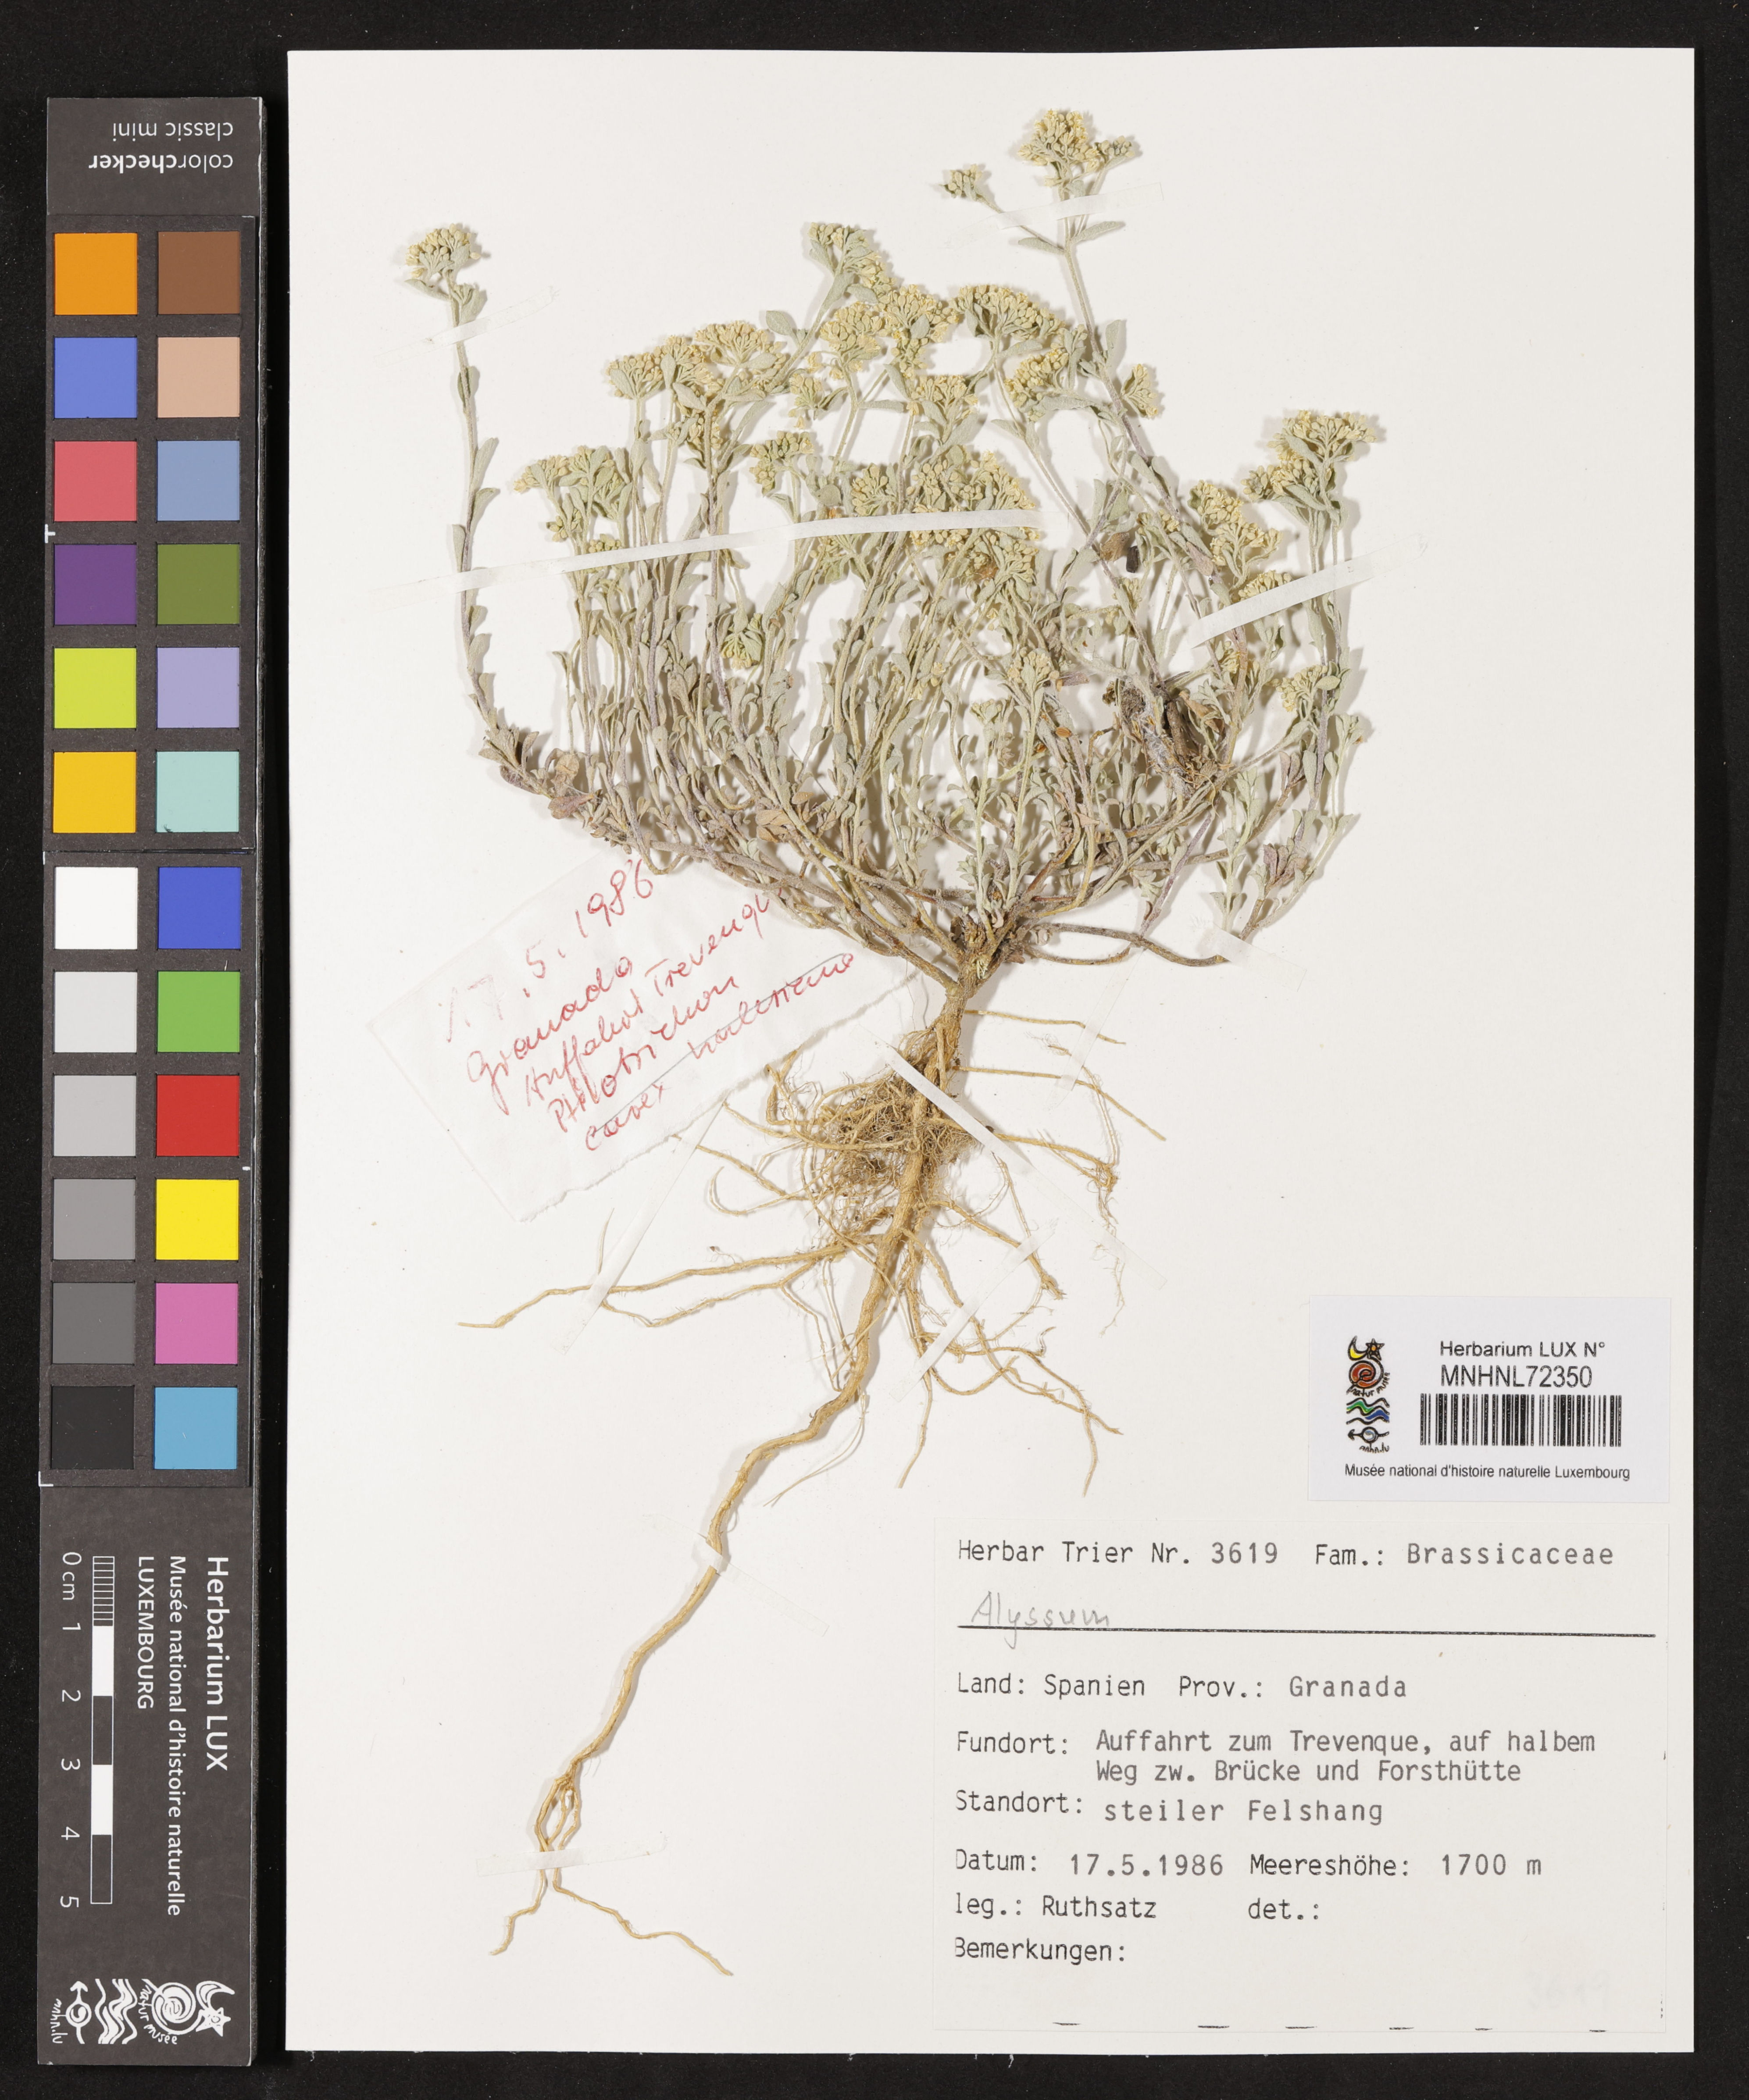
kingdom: Plantae
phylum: Tracheophyta
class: Magnoliopsida
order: Brassicales
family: Brassicaceae
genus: Alyssum
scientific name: Alyssum
